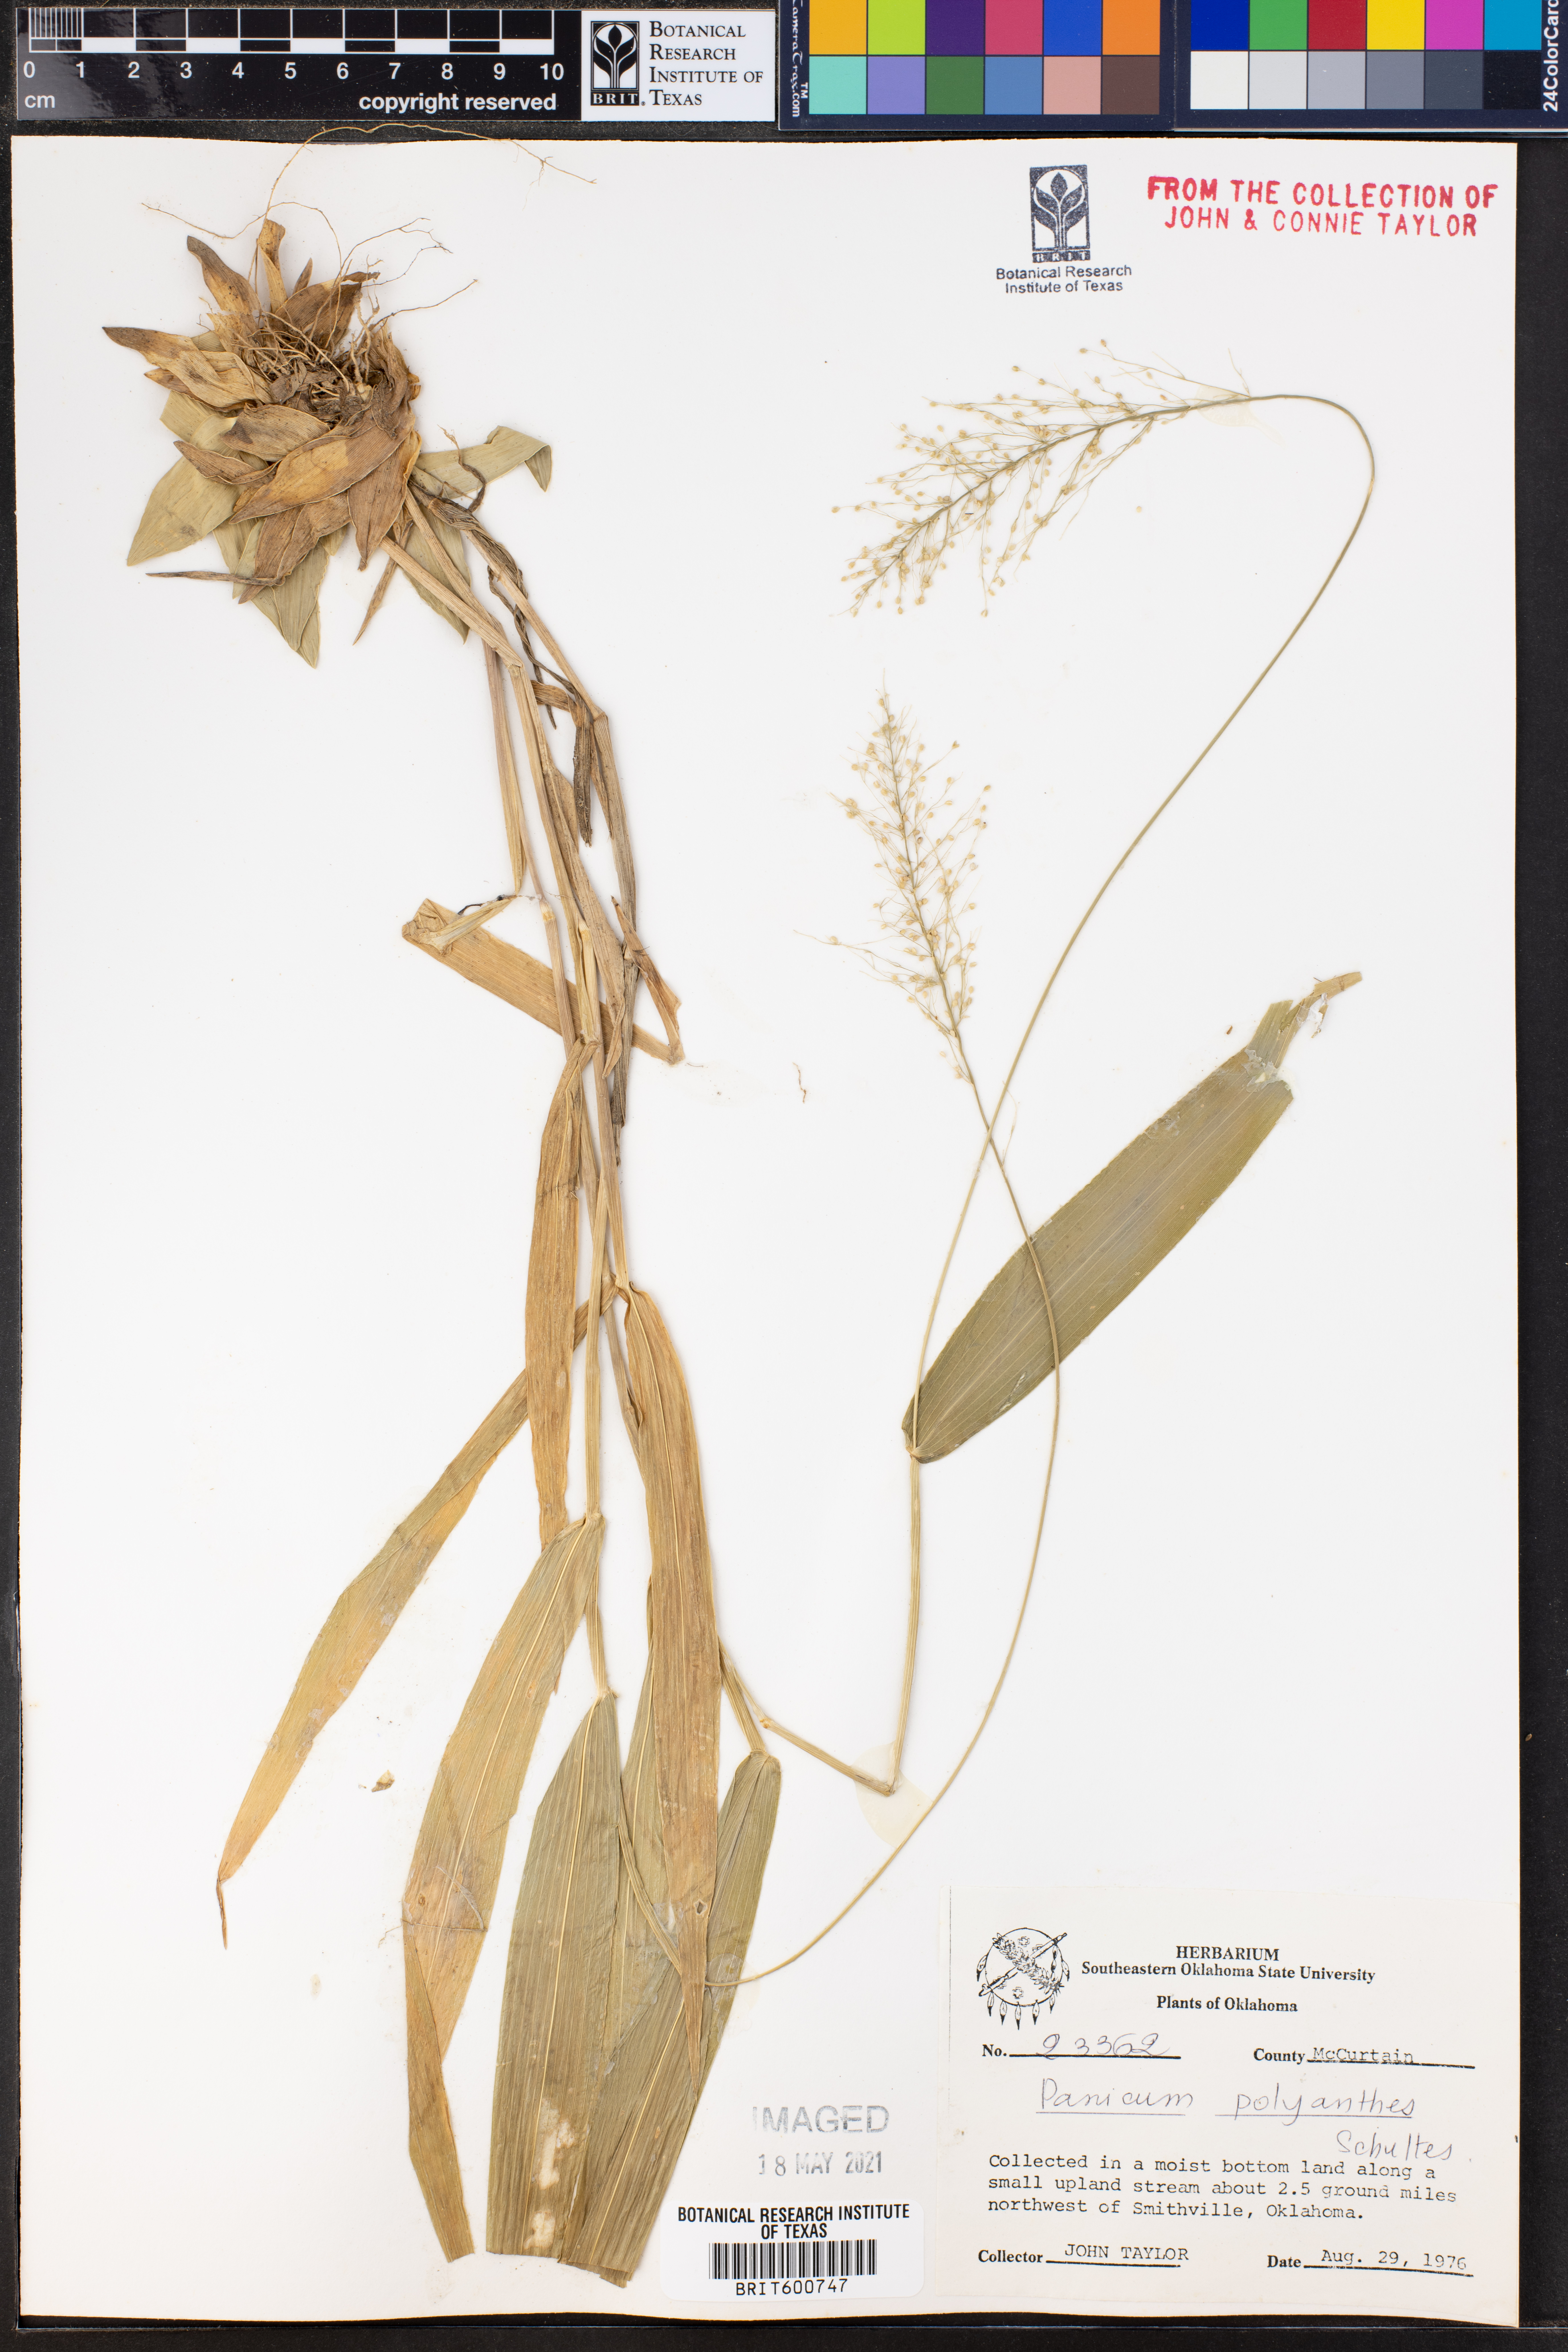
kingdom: Plantae
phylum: Tracheophyta
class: Liliopsida
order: Poales
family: Poaceae
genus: Dichanthelium
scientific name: Dichanthelium polyanthes
